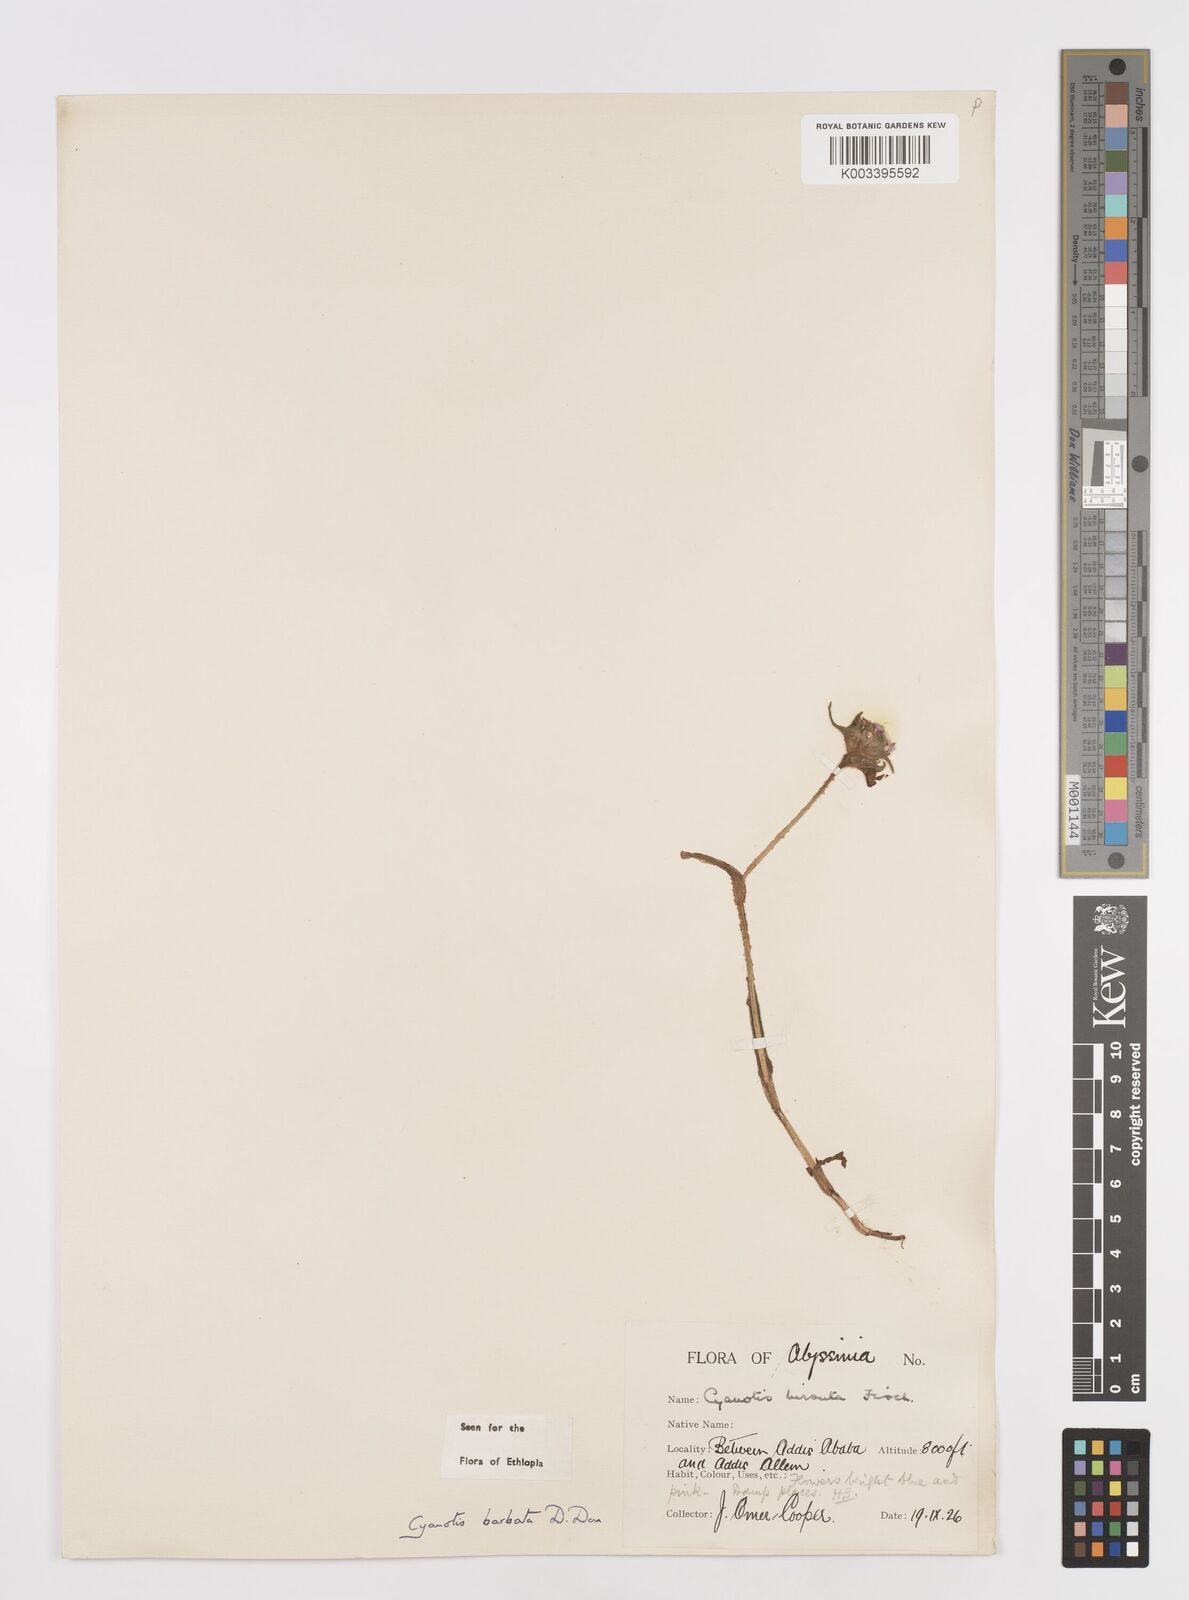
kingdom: Plantae
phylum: Tracheophyta
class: Liliopsida
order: Commelinales
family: Commelinaceae
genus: Cyanotis
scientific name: Cyanotis vaga
